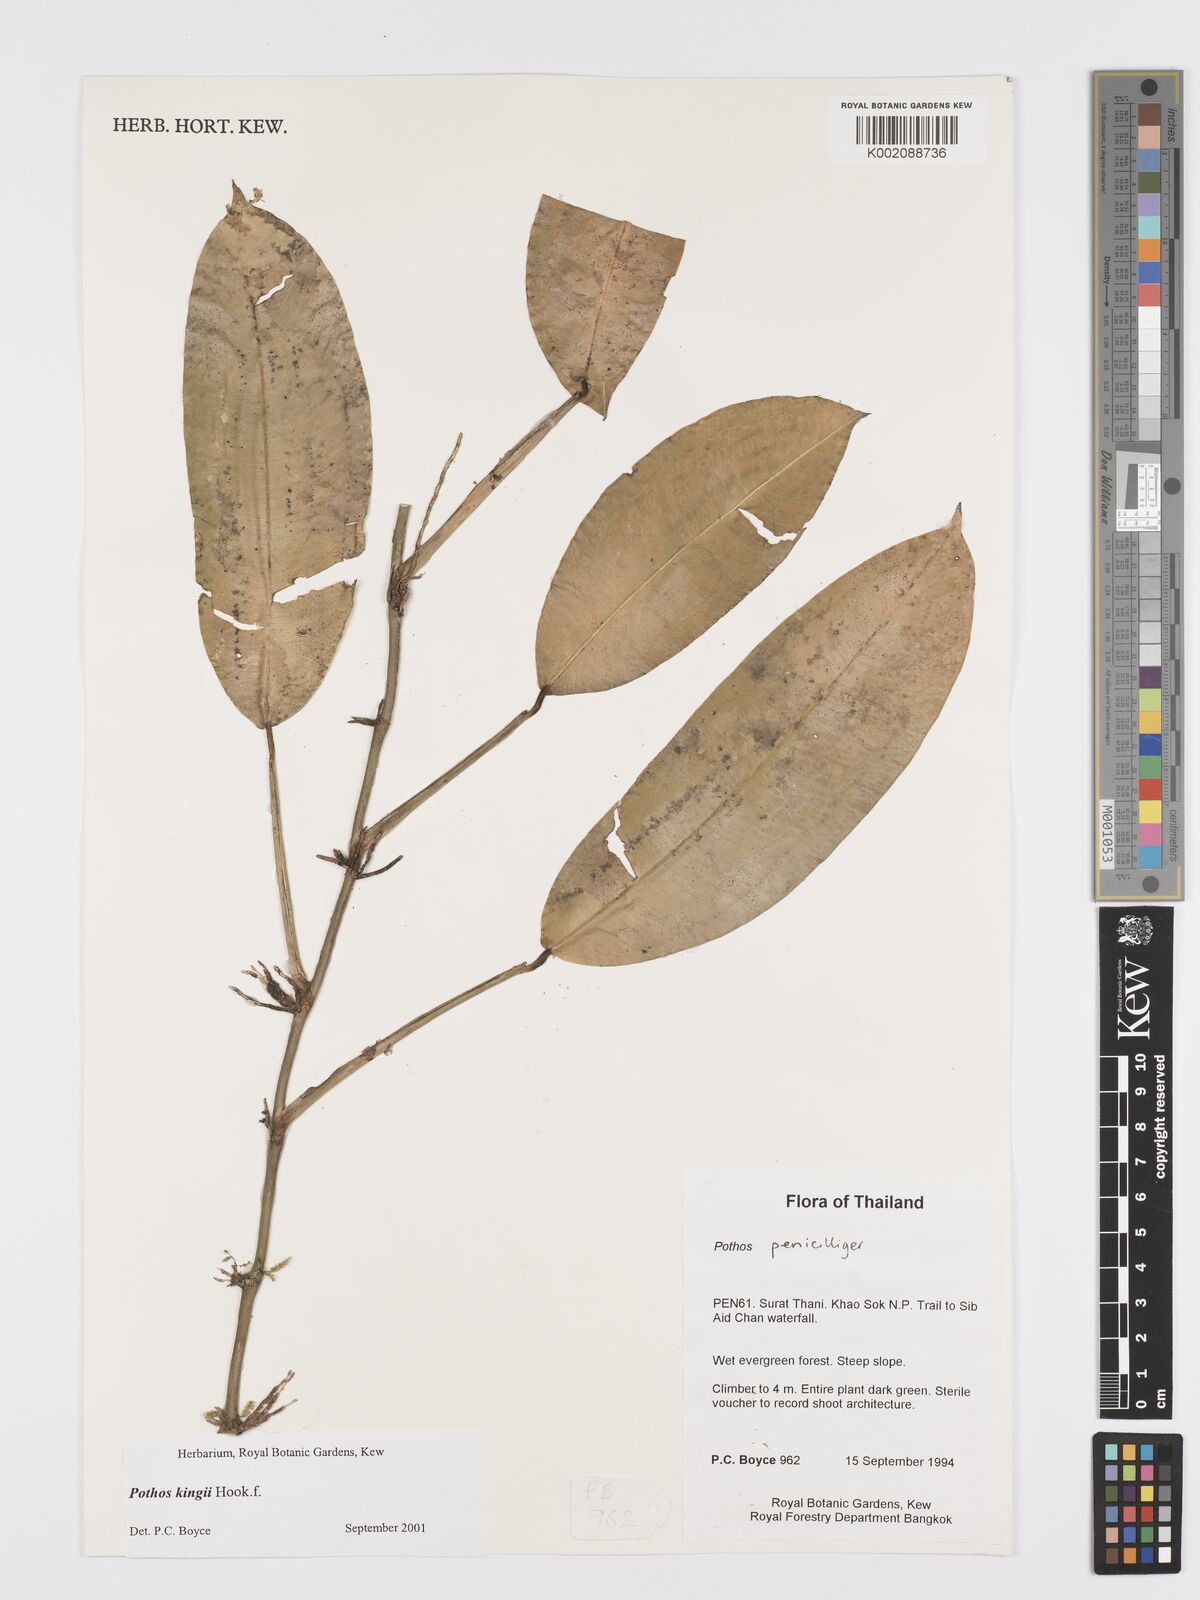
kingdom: Plantae
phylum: Tracheophyta
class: Liliopsida
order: Alismatales
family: Araceae
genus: Pothos
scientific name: Pothos kingii
